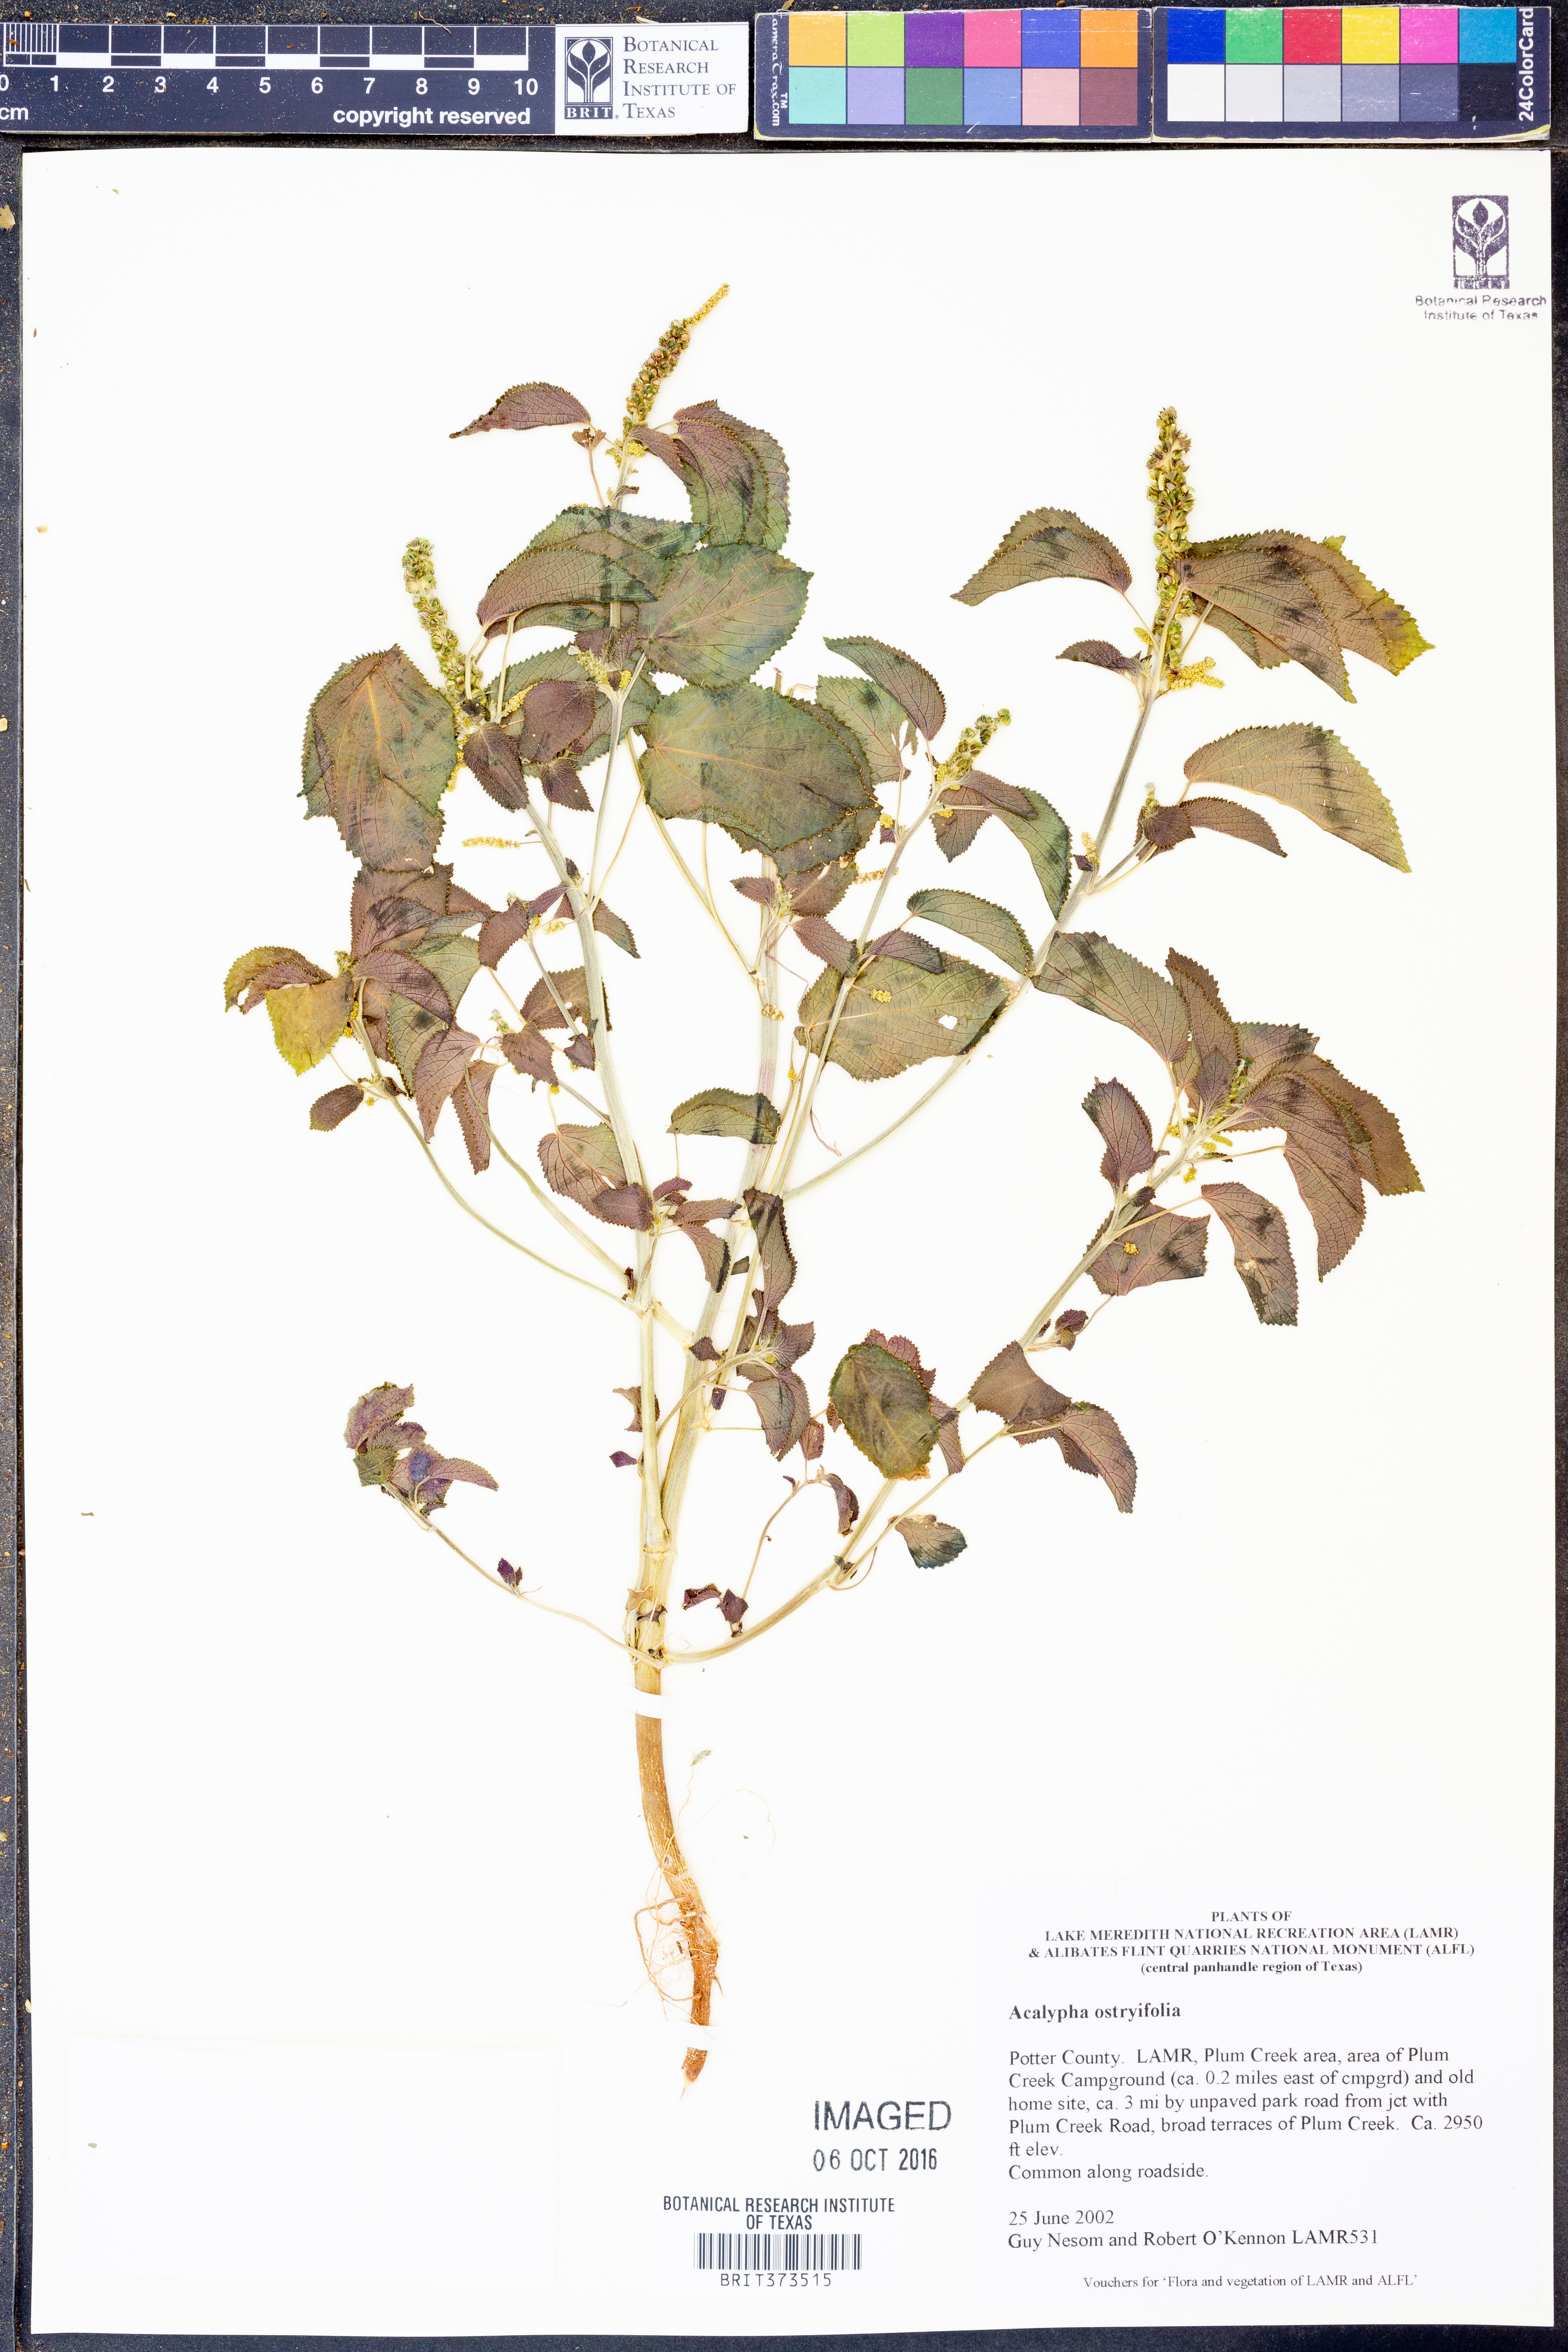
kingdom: Plantae
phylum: Tracheophyta
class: Magnoliopsida
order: Malpighiales
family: Euphorbiaceae
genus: Acalypha
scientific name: Acalypha persimilis
